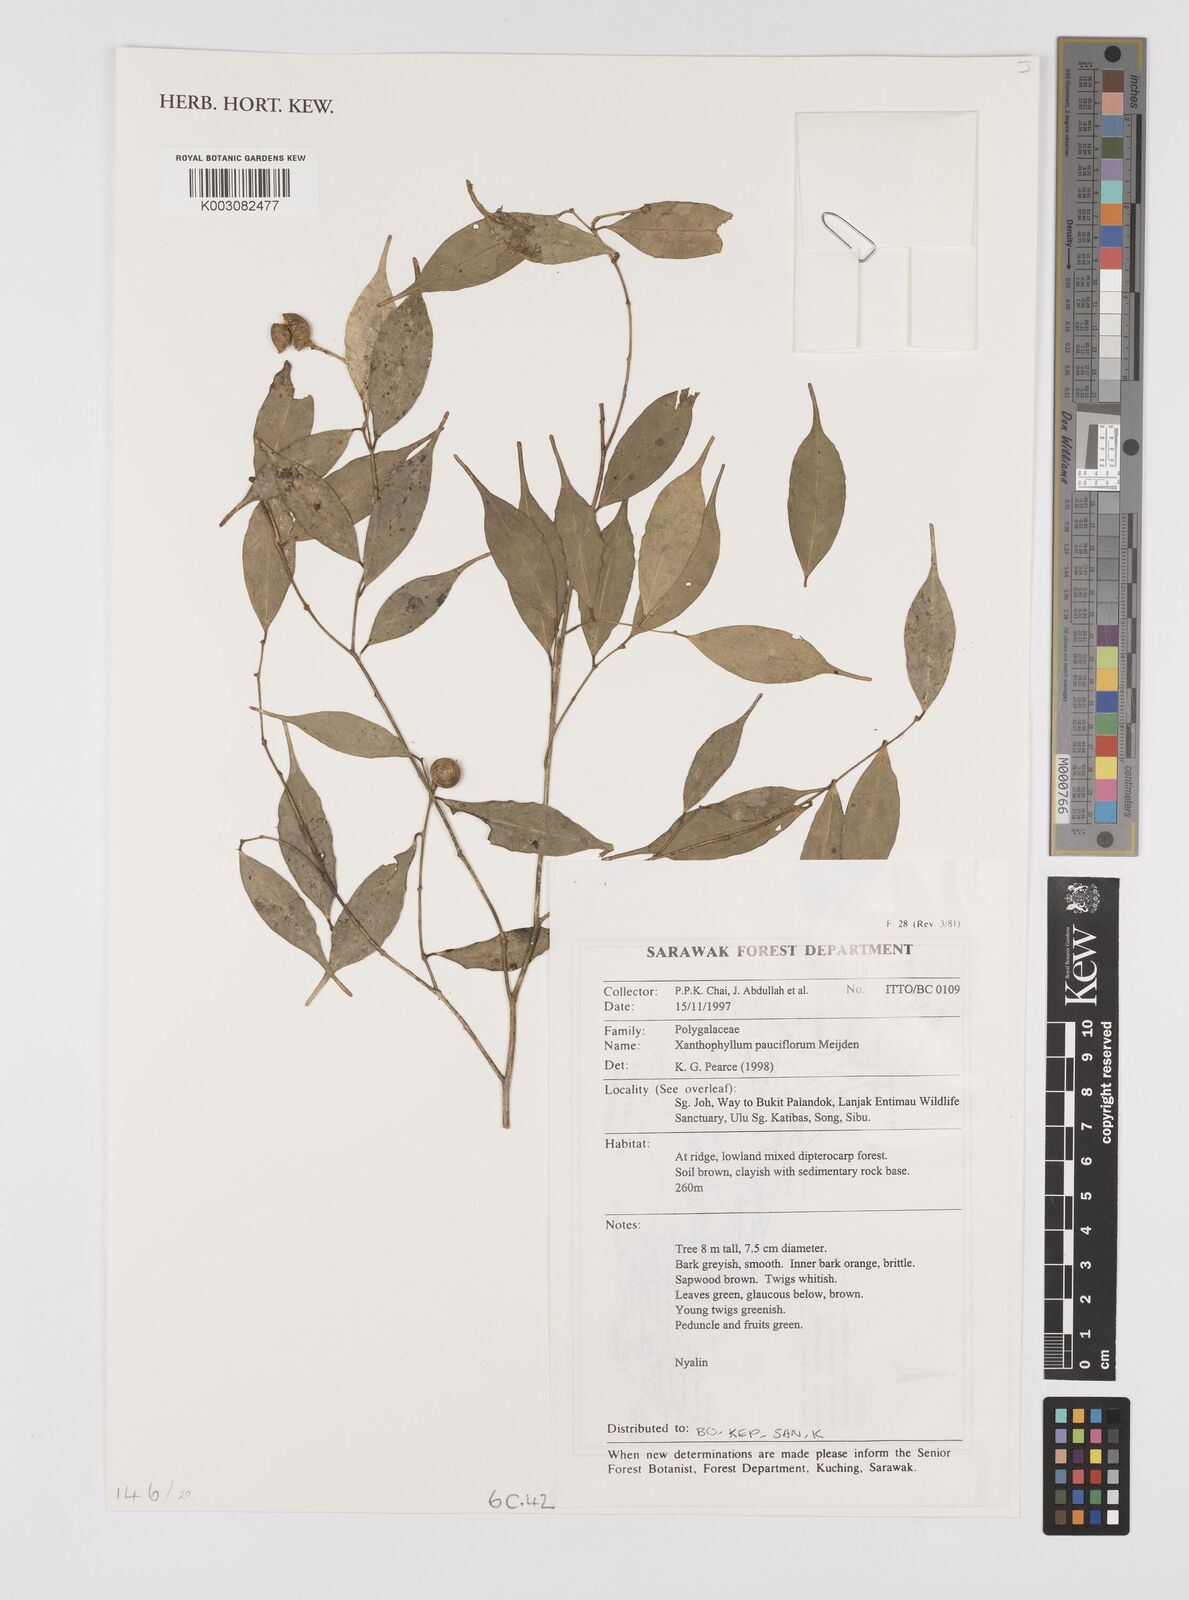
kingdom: Plantae
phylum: Tracheophyta
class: Magnoliopsida
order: Fabales
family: Polygalaceae
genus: Xanthophyllum
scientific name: Xanthophyllum pauciflorum
